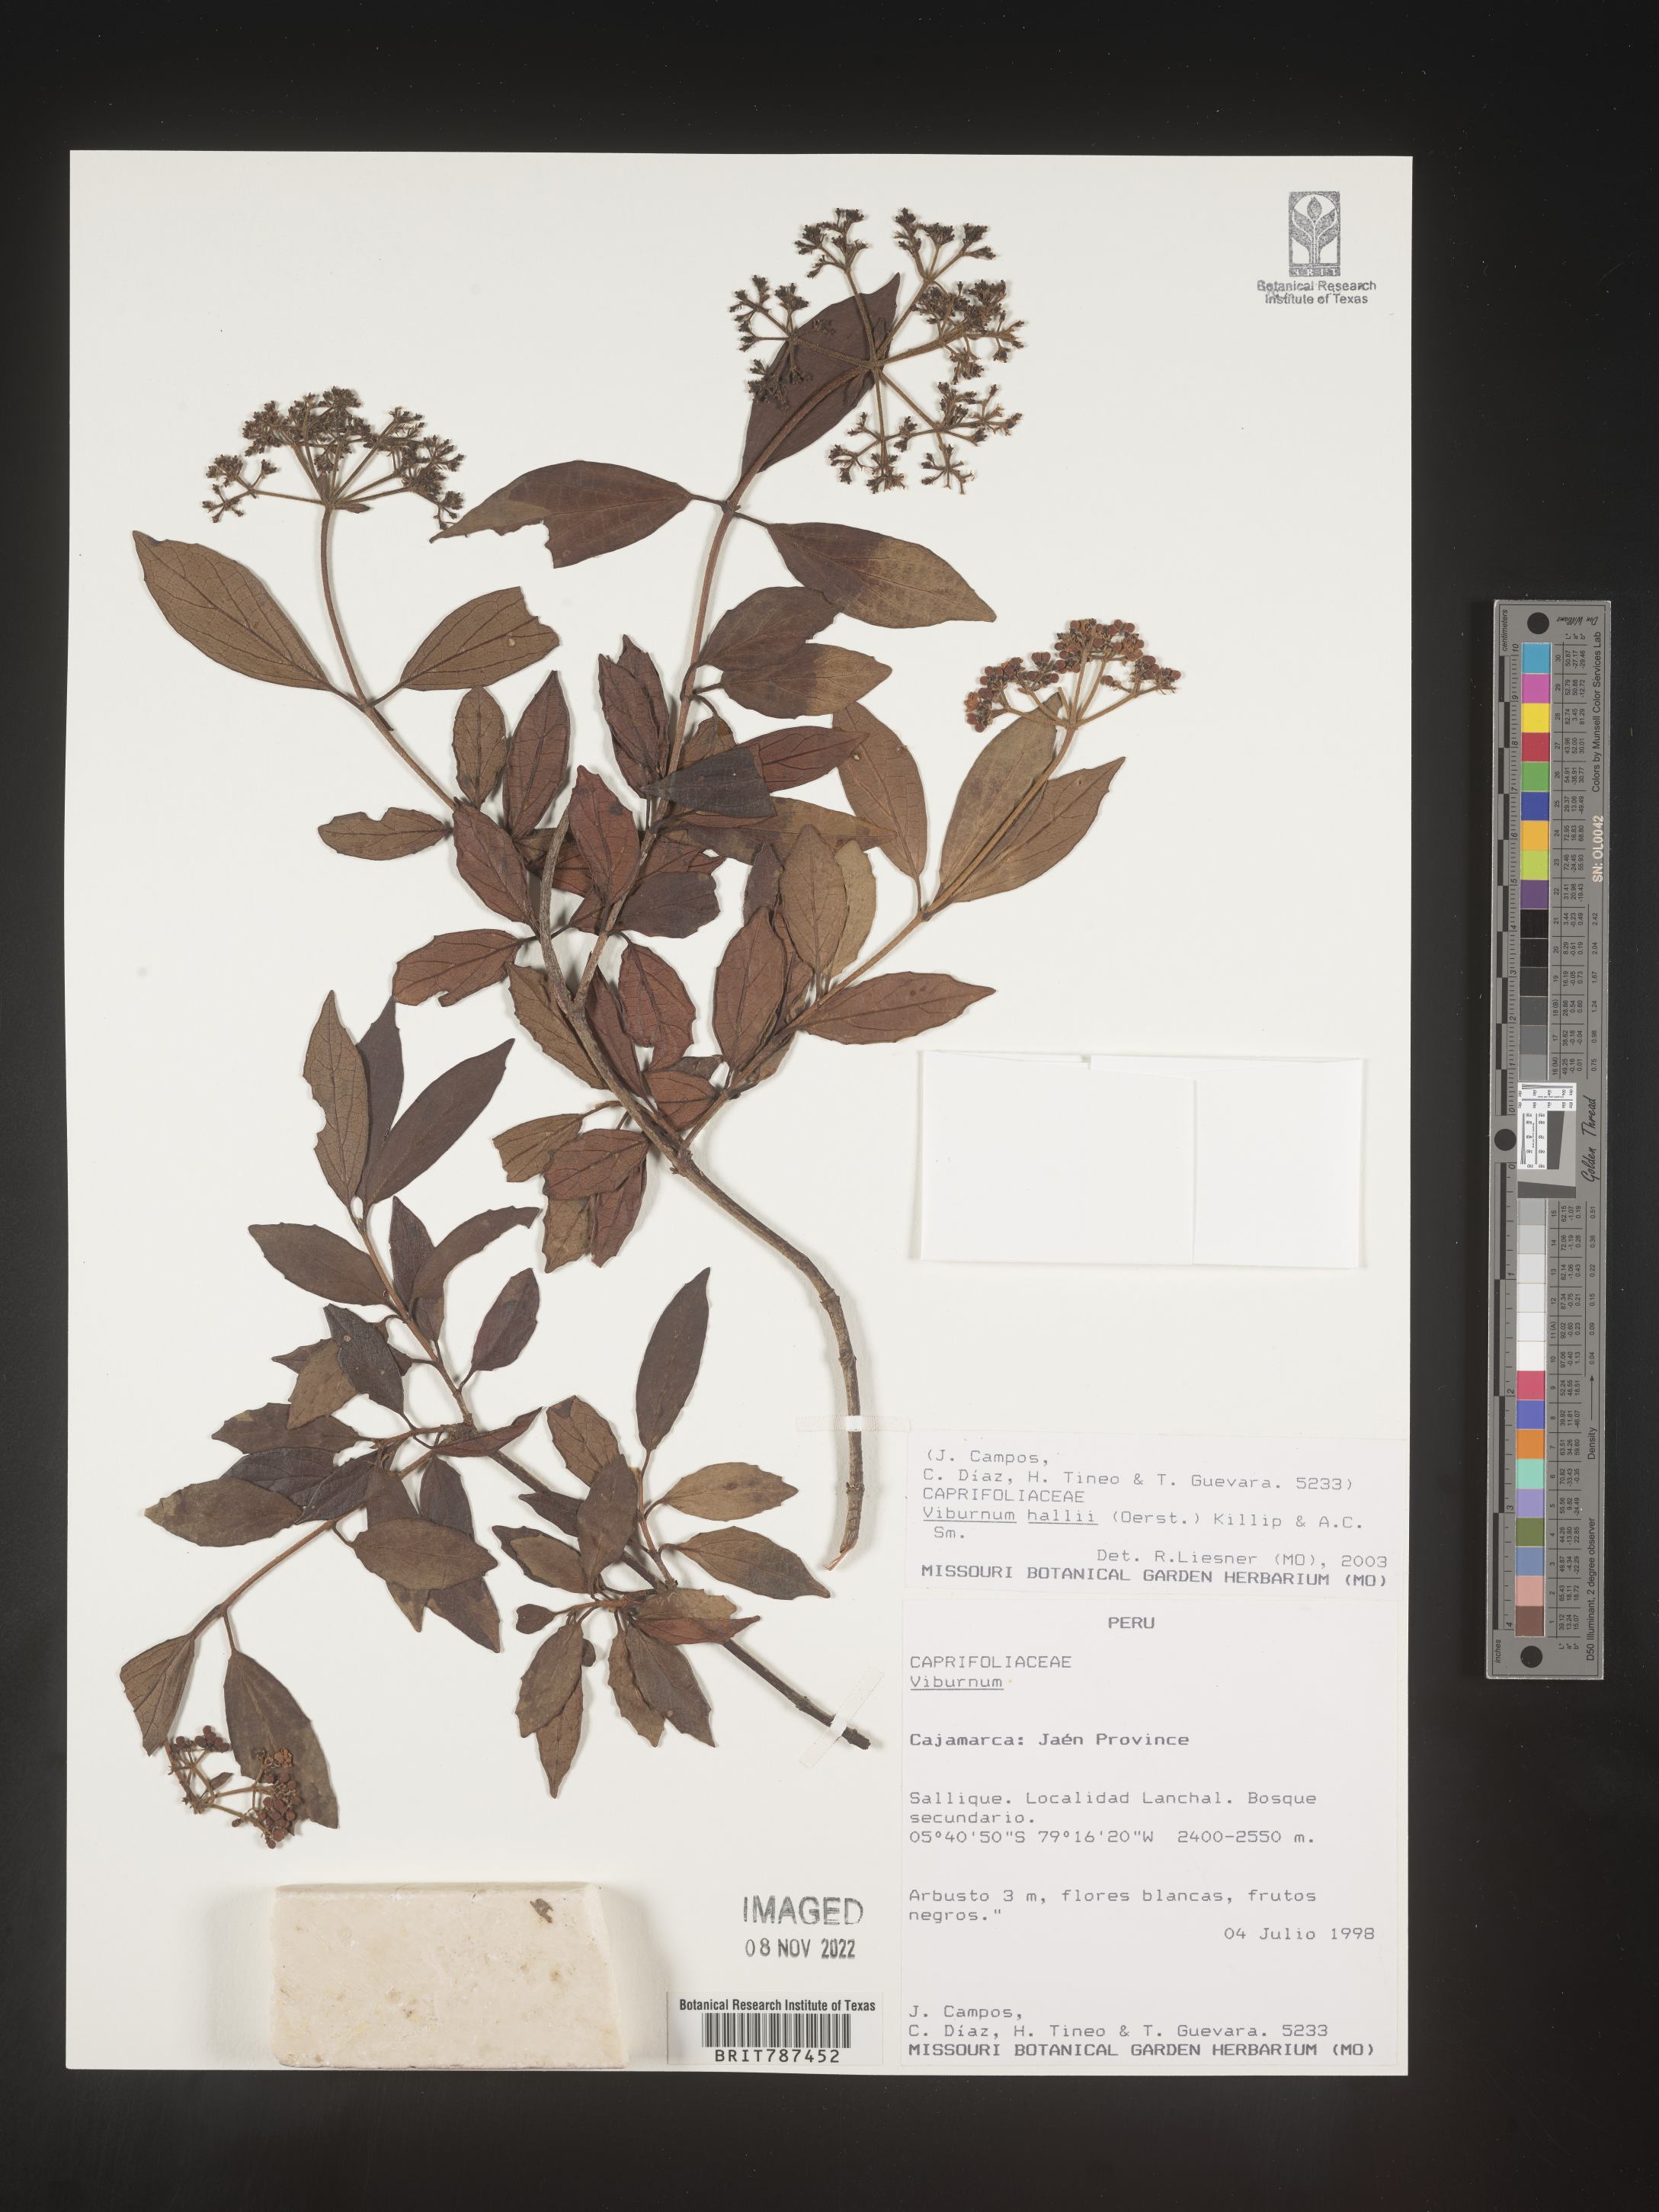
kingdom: Plantae
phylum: Tracheophyta
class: Magnoliopsida
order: Dipsacales
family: Viburnaceae
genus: Viburnum
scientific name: Viburnum
